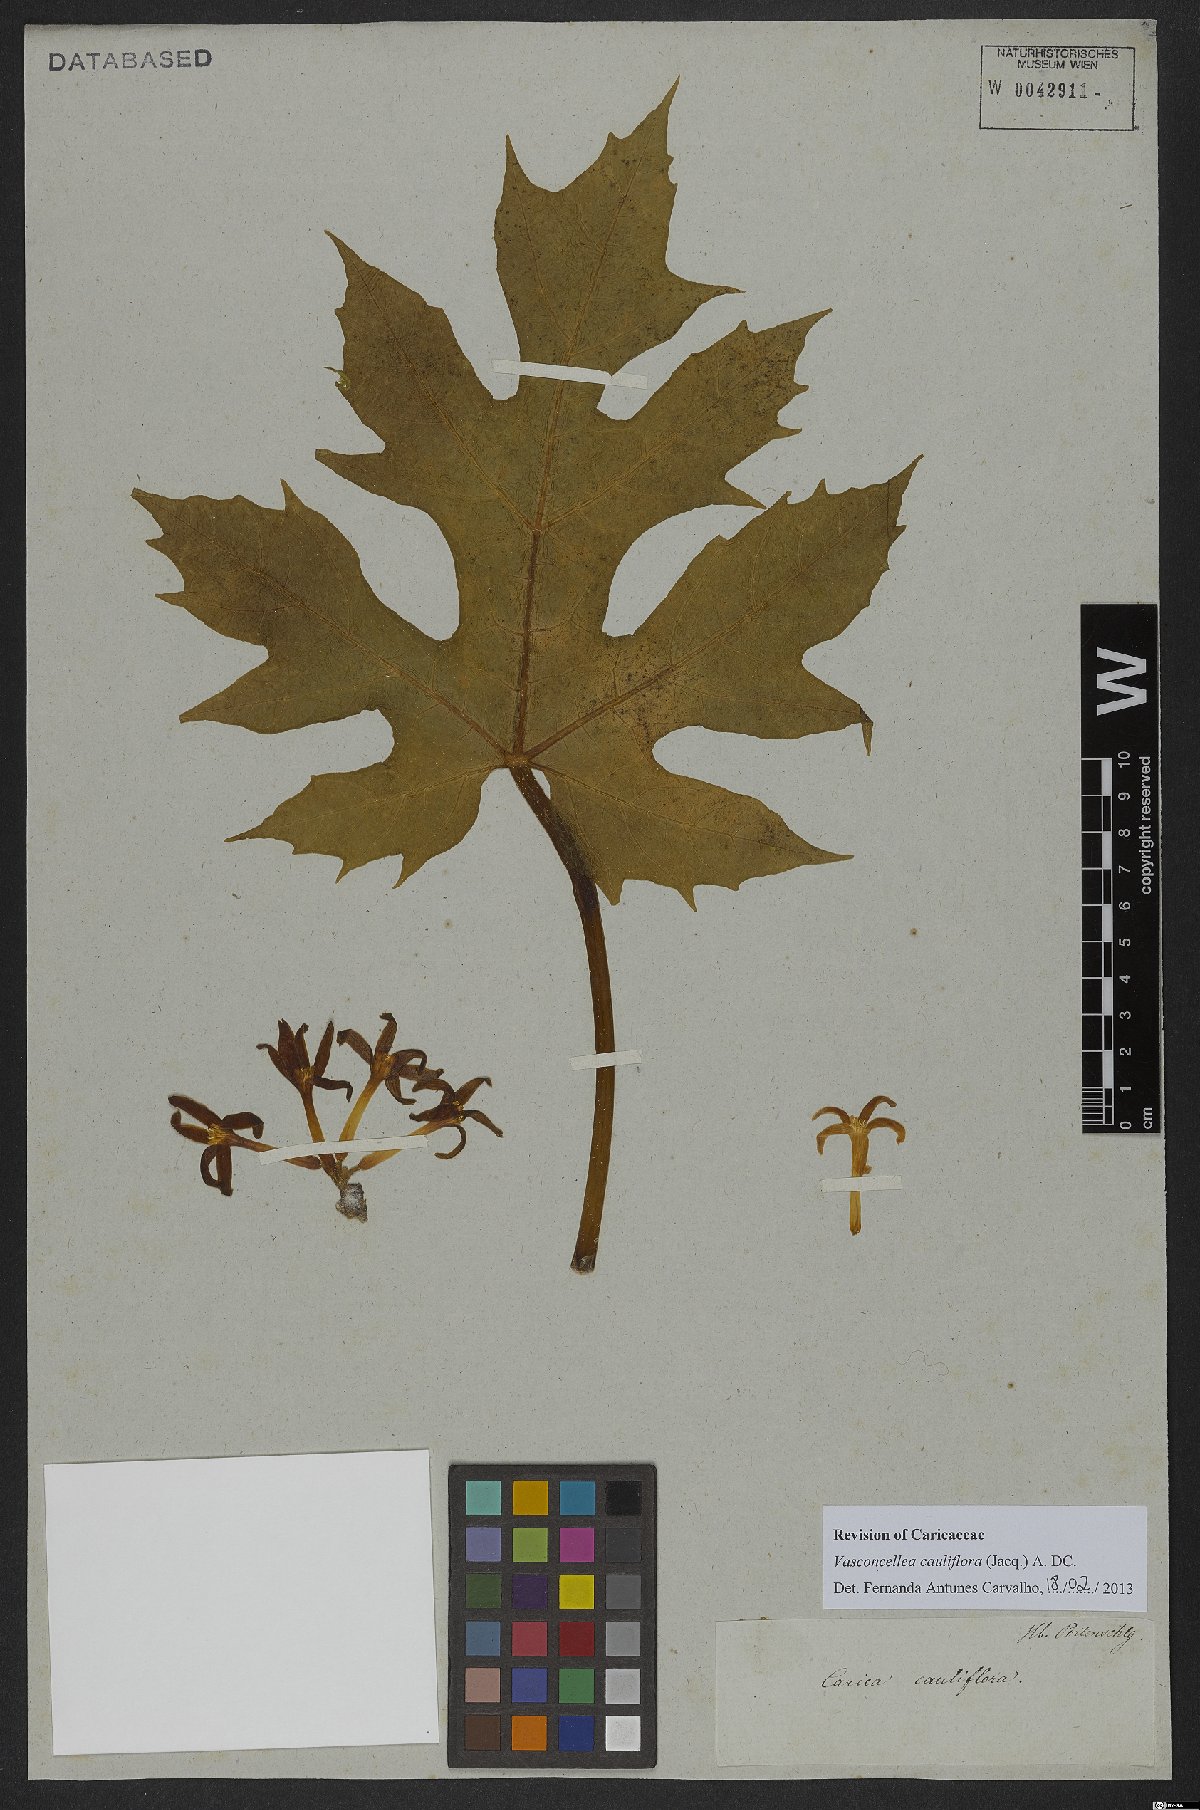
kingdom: Plantae
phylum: Tracheophyta
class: Magnoliopsida
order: Brassicales
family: Caricaceae
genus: Vasconcellea
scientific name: Vasconcellea cauliflora
